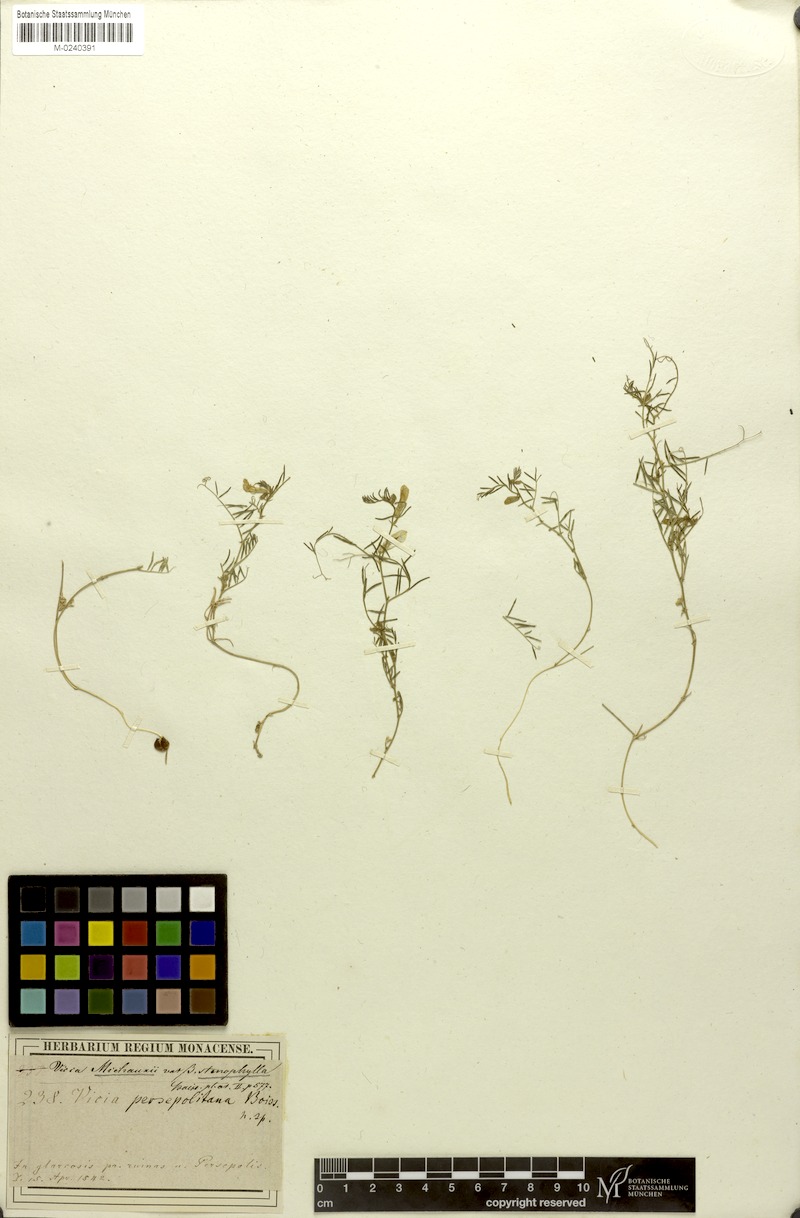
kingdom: Plantae
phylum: Tracheophyta
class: Magnoliopsida
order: Fabales
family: Fabaceae
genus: Vicia
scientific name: Vicia michauxii
